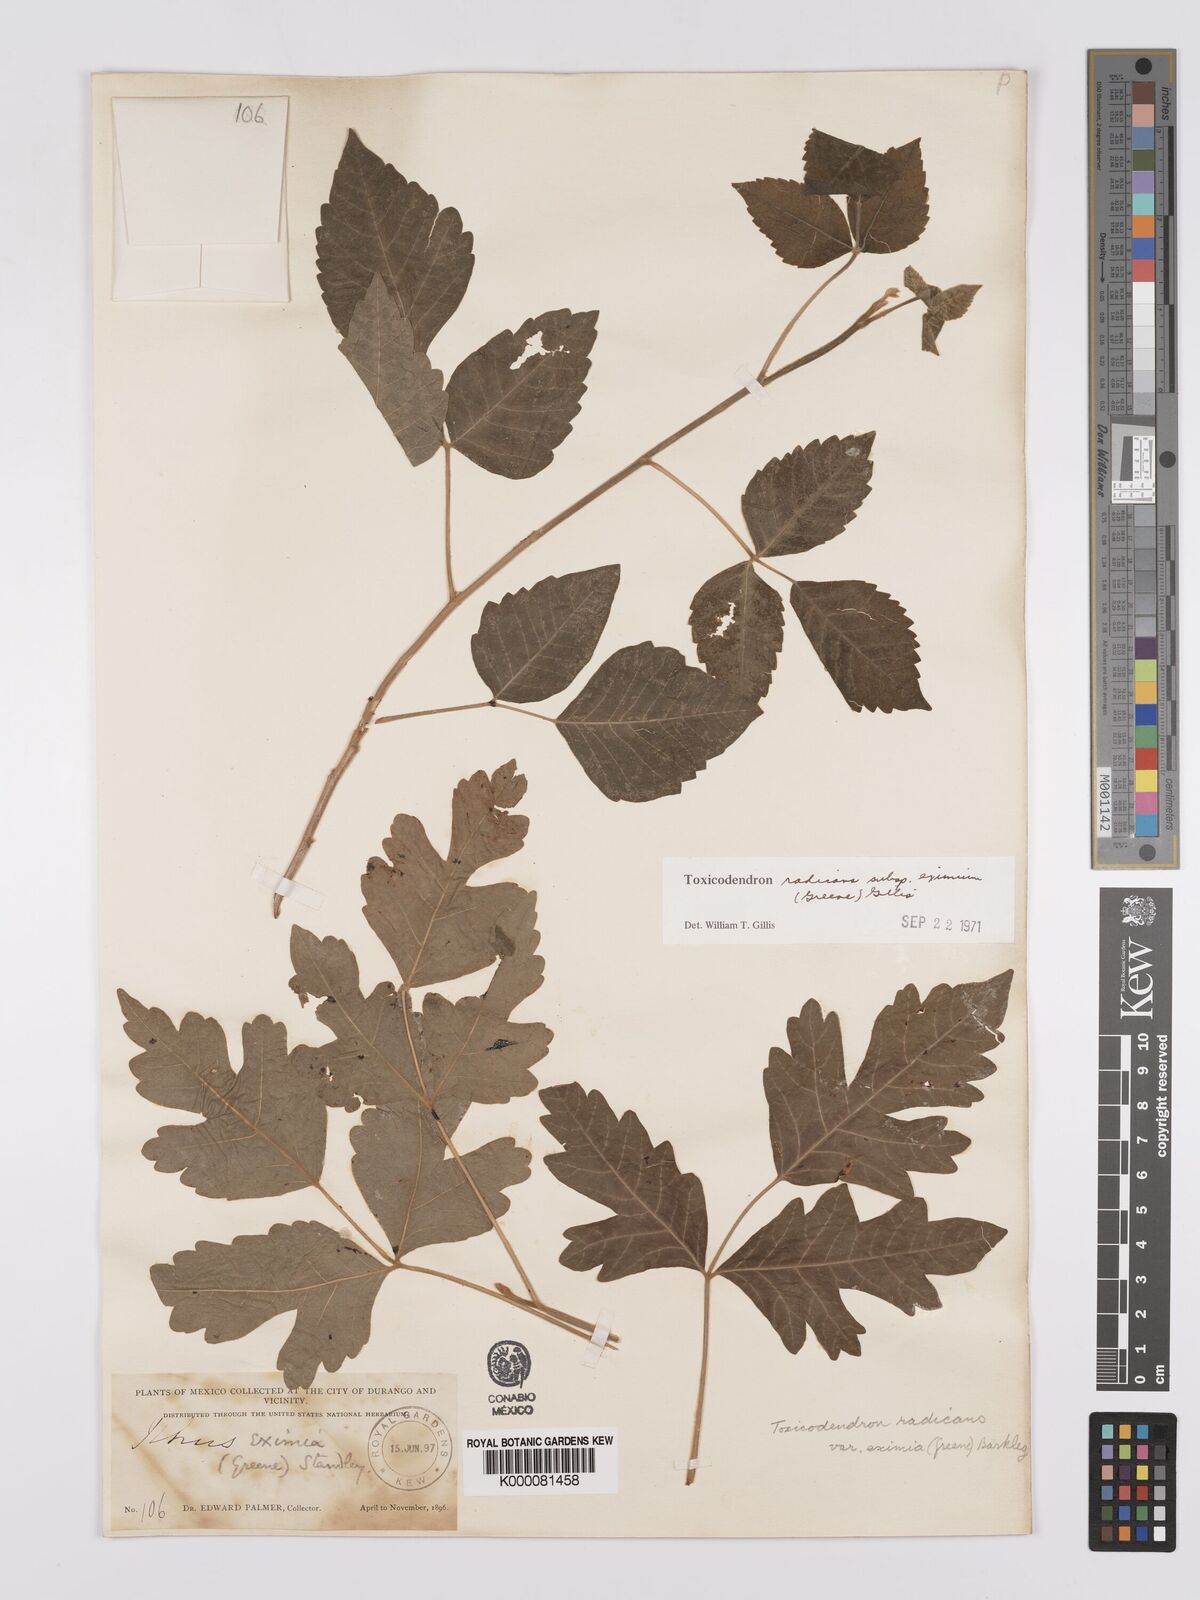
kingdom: Plantae
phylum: Tracheophyta
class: Magnoliopsida
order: Sapindales
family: Anacardiaceae
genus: Toxicodendron
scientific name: Toxicodendron radicans
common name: Poison ivy
